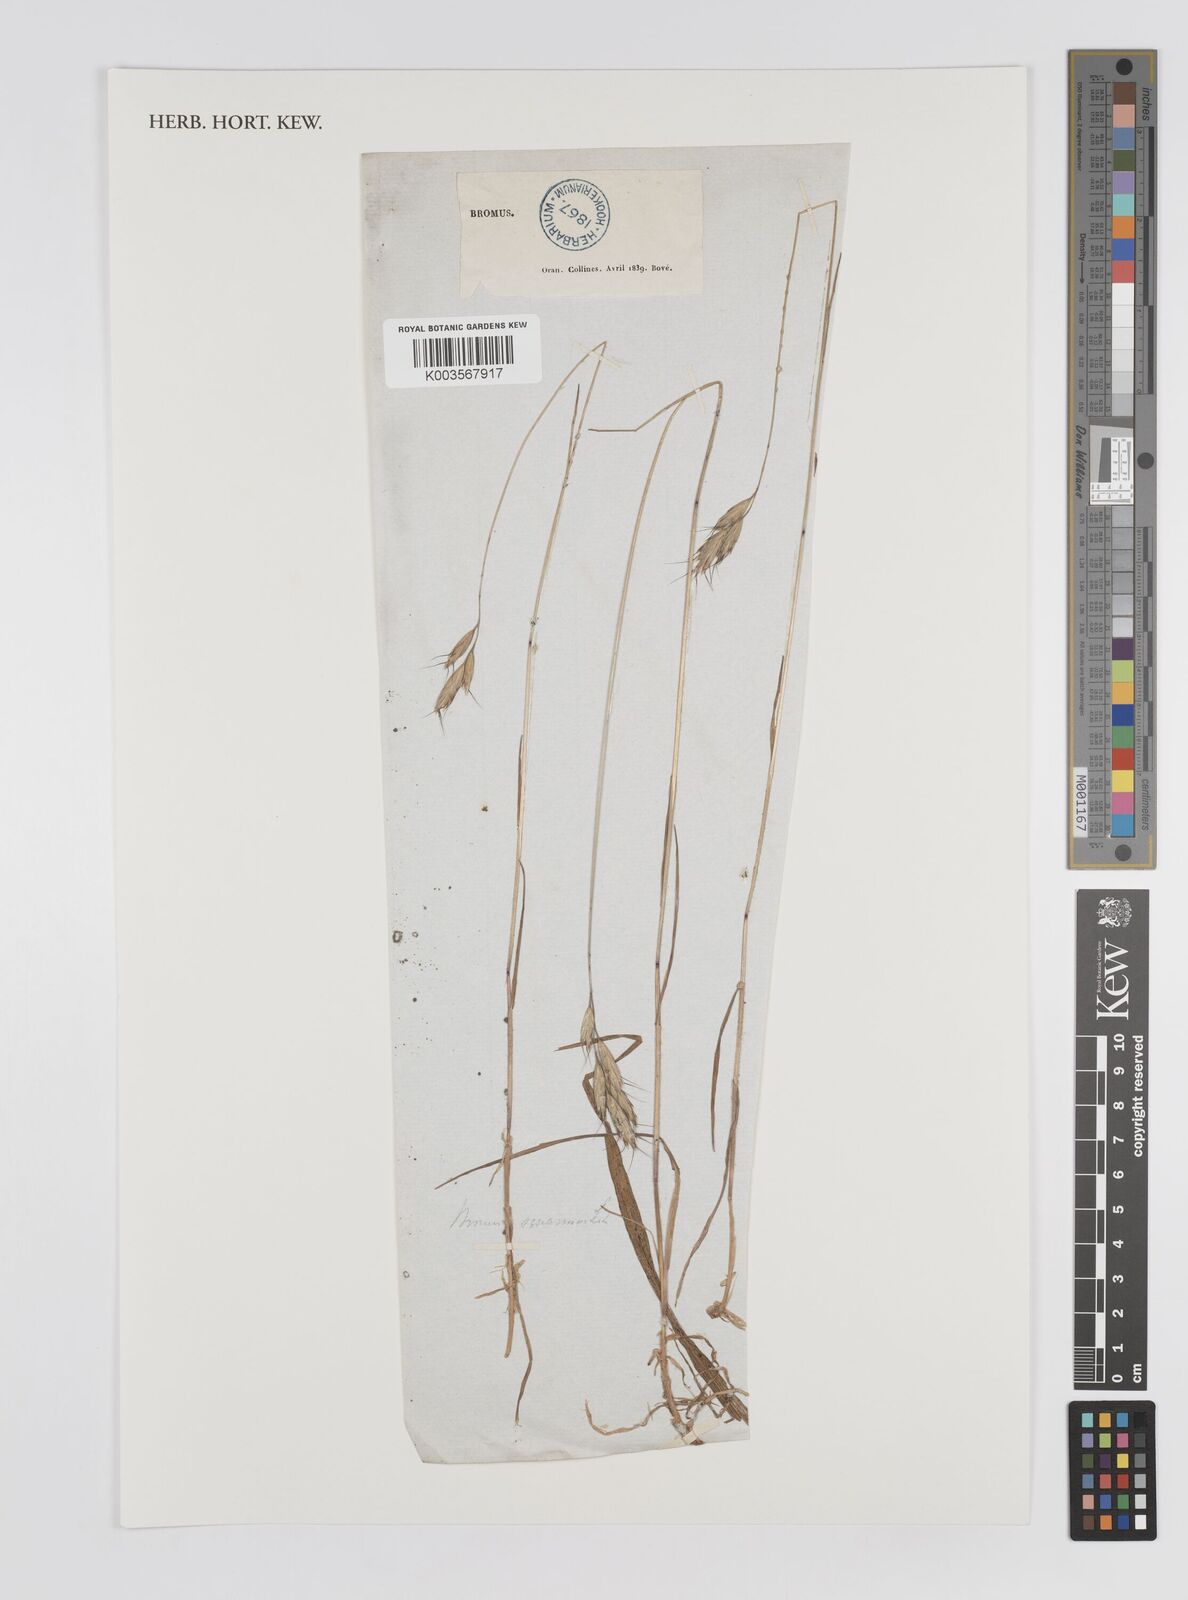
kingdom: Plantae
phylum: Tracheophyta
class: Liliopsida
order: Poales
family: Poaceae
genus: Bromus
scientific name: Bromus squarrosus
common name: Corn brome
